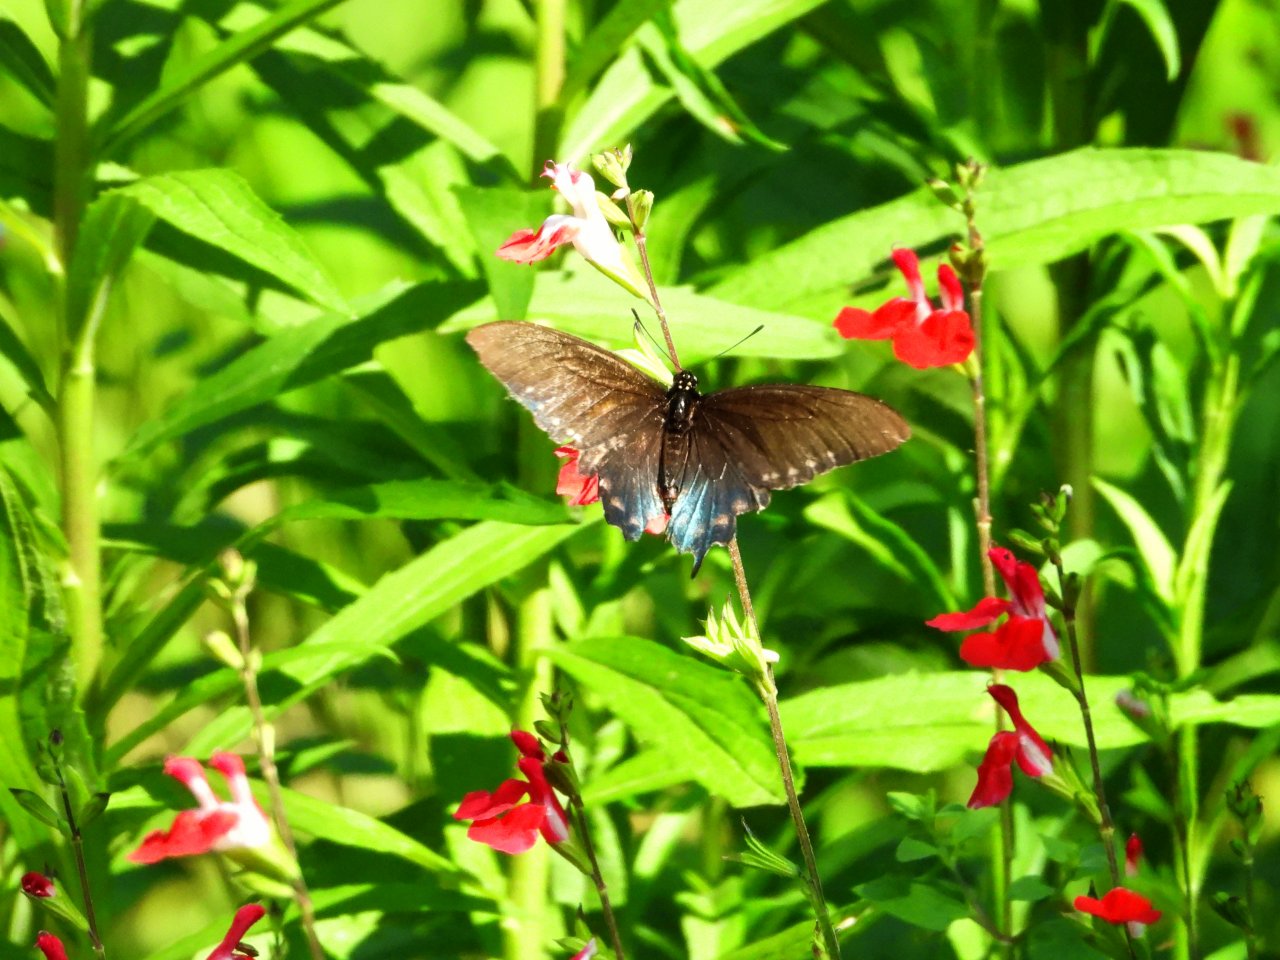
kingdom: Animalia
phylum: Arthropoda
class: Insecta
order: Lepidoptera
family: Papilionidae
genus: Battus
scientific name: Battus philenor
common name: Pipevine Swallowtail
